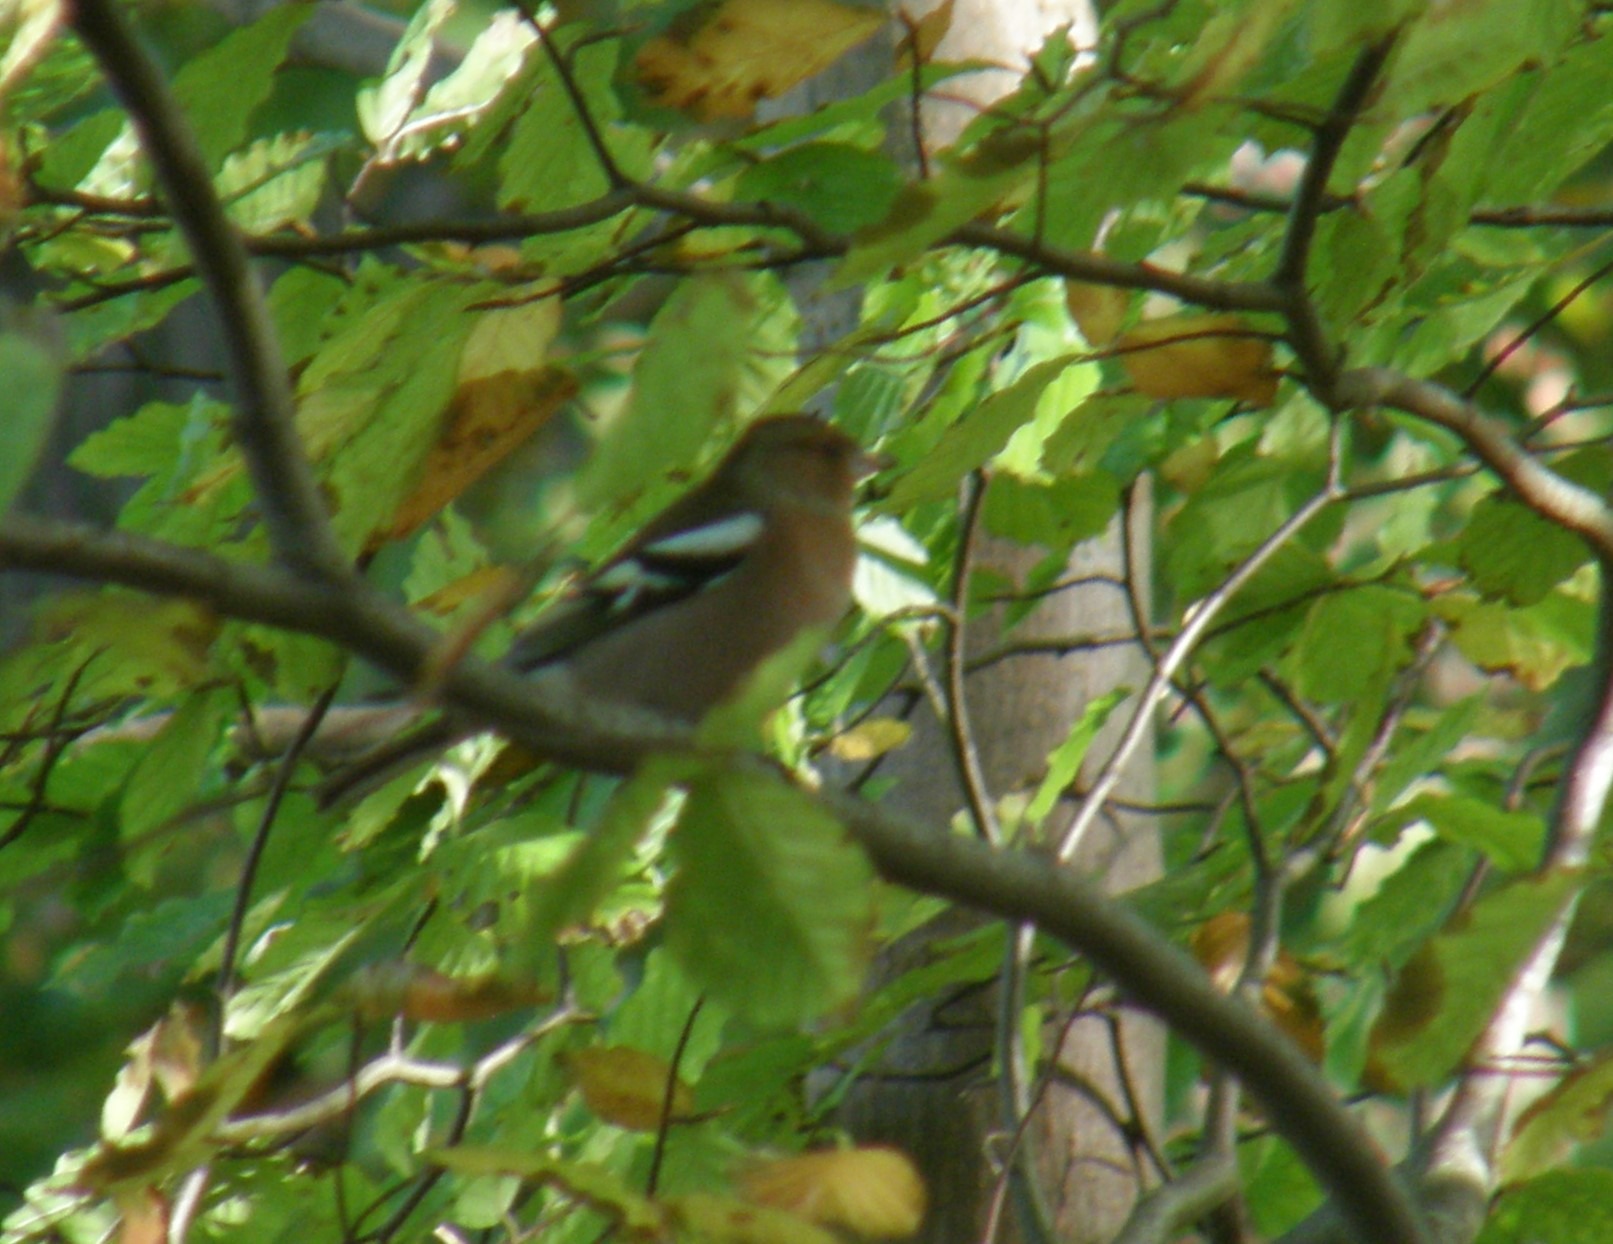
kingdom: Animalia
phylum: Chordata
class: Aves
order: Passeriformes
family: Fringillidae
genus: Fringilla
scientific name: Fringilla coelebs
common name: Bogfinke
